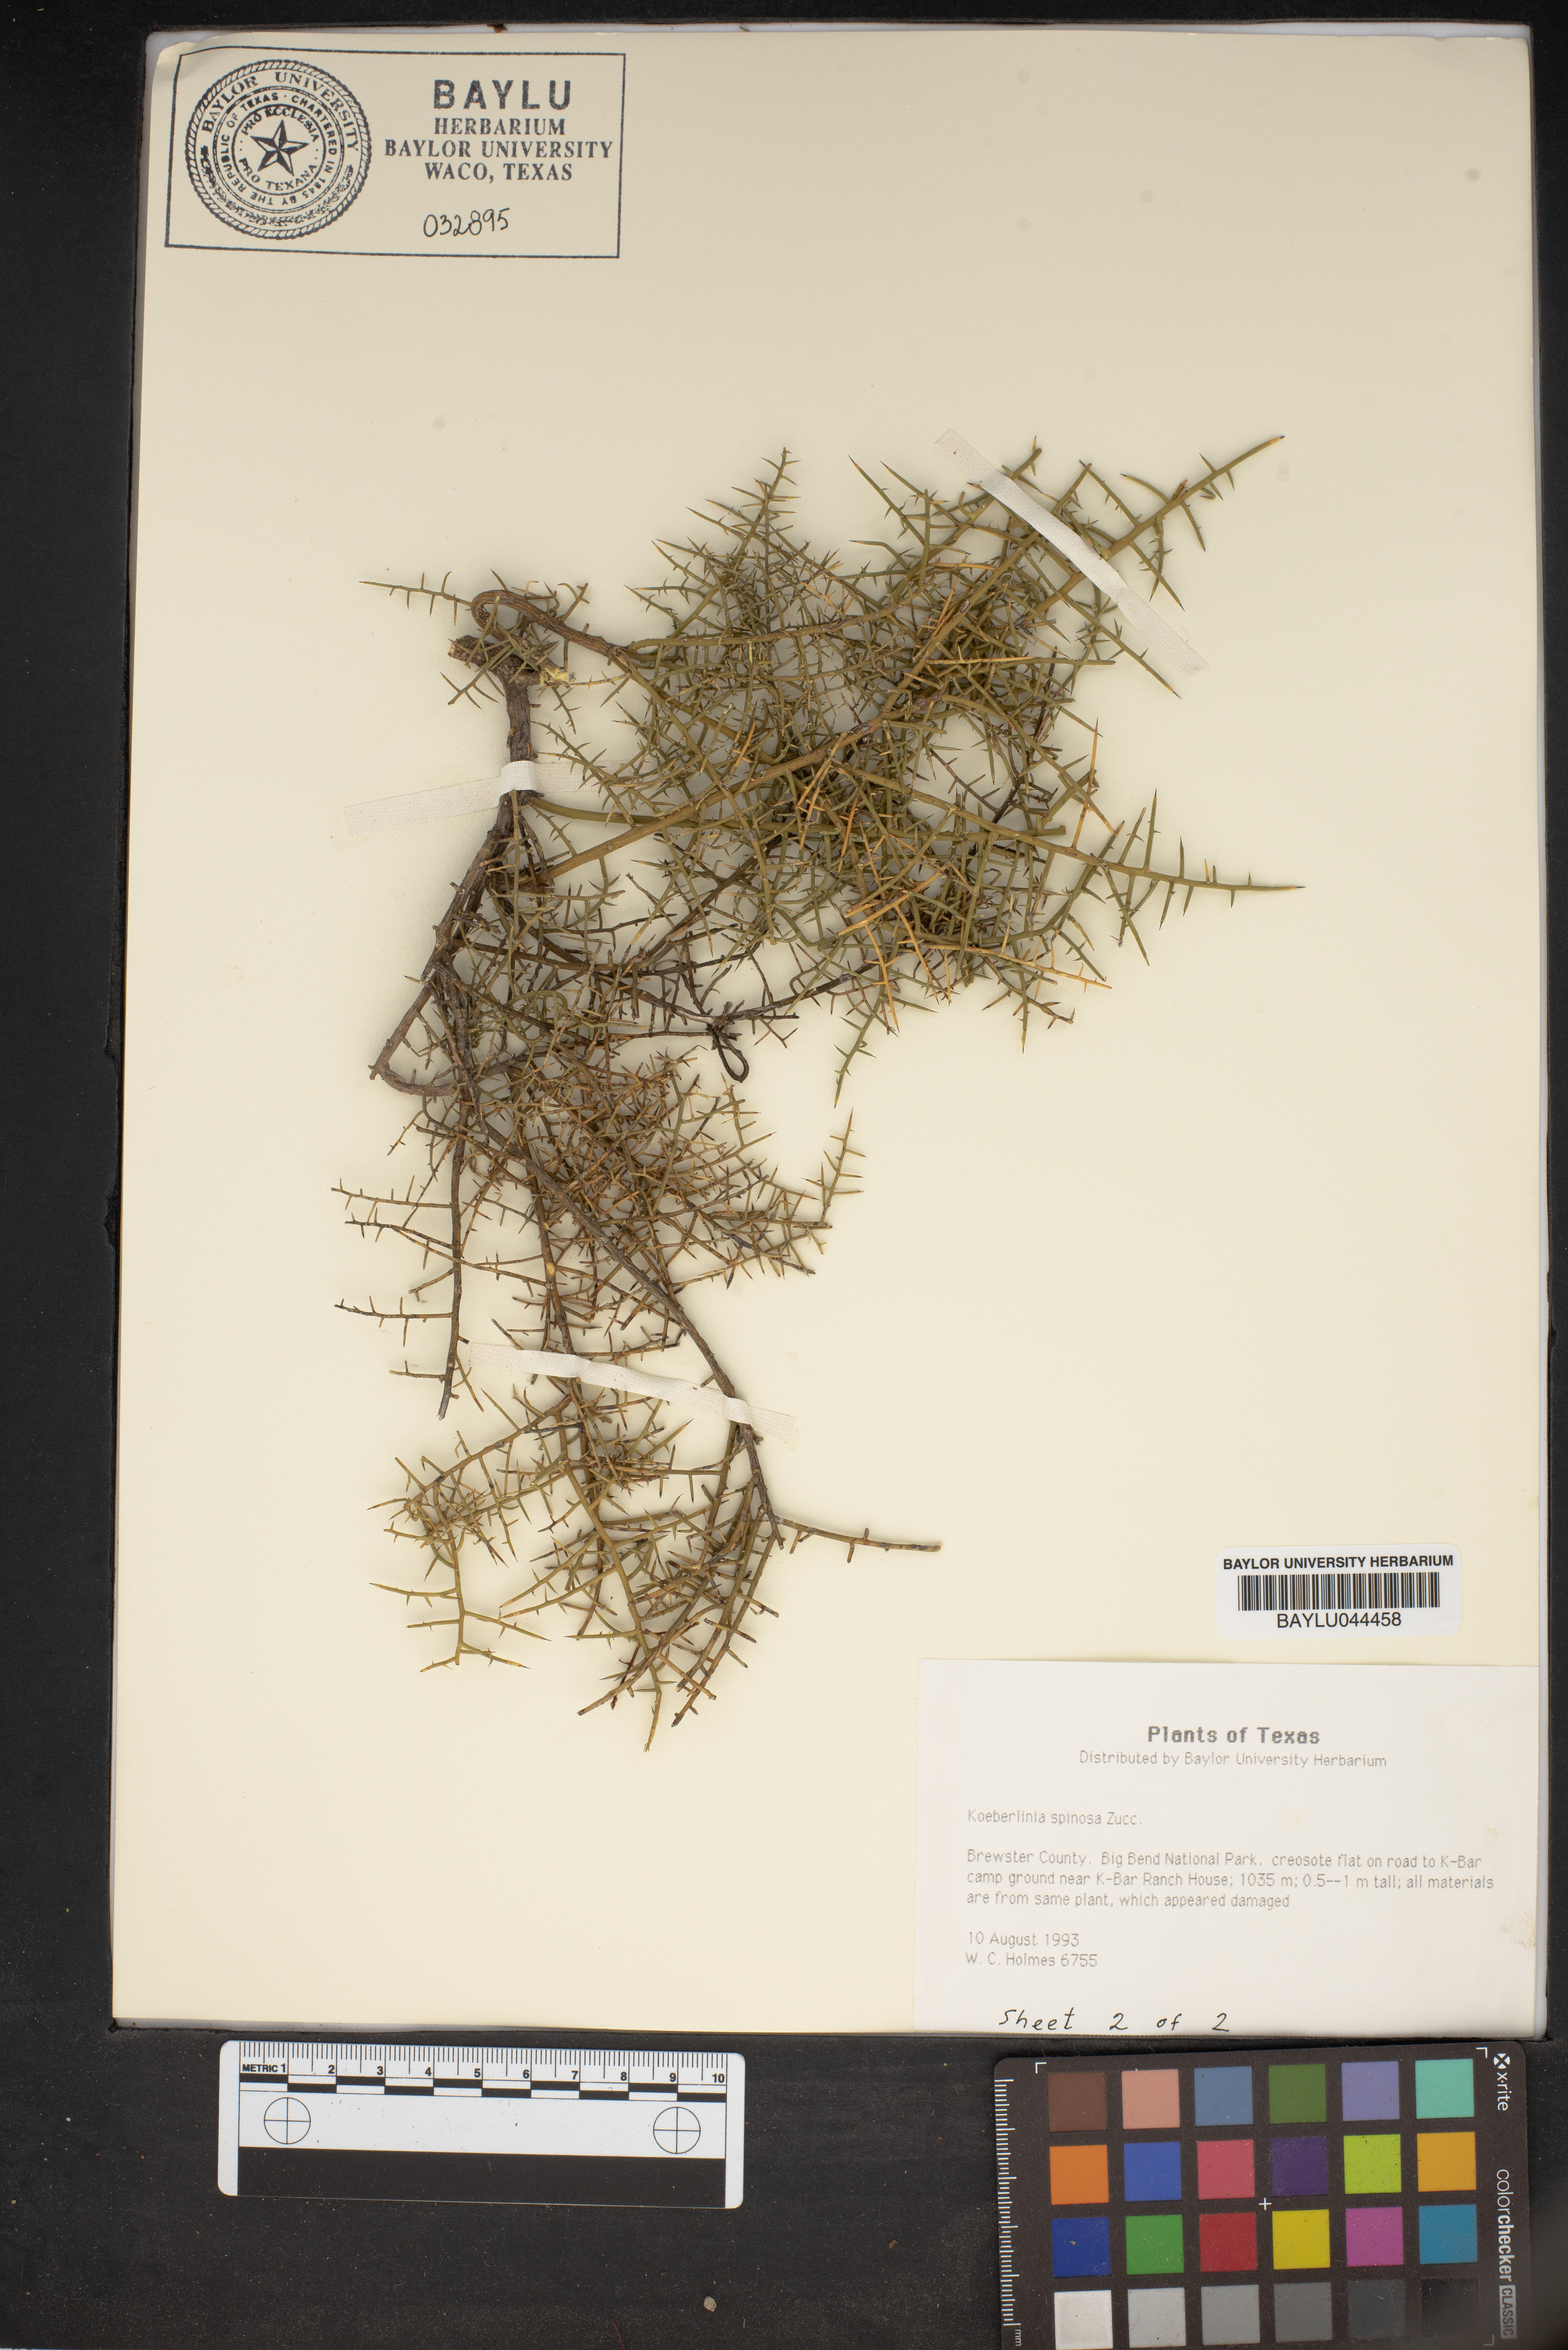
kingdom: Plantae
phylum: Tracheophyta
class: Magnoliopsida
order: Brassicales
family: Koeberliniaceae
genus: Koeberlinia
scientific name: Koeberlinia spinosa
